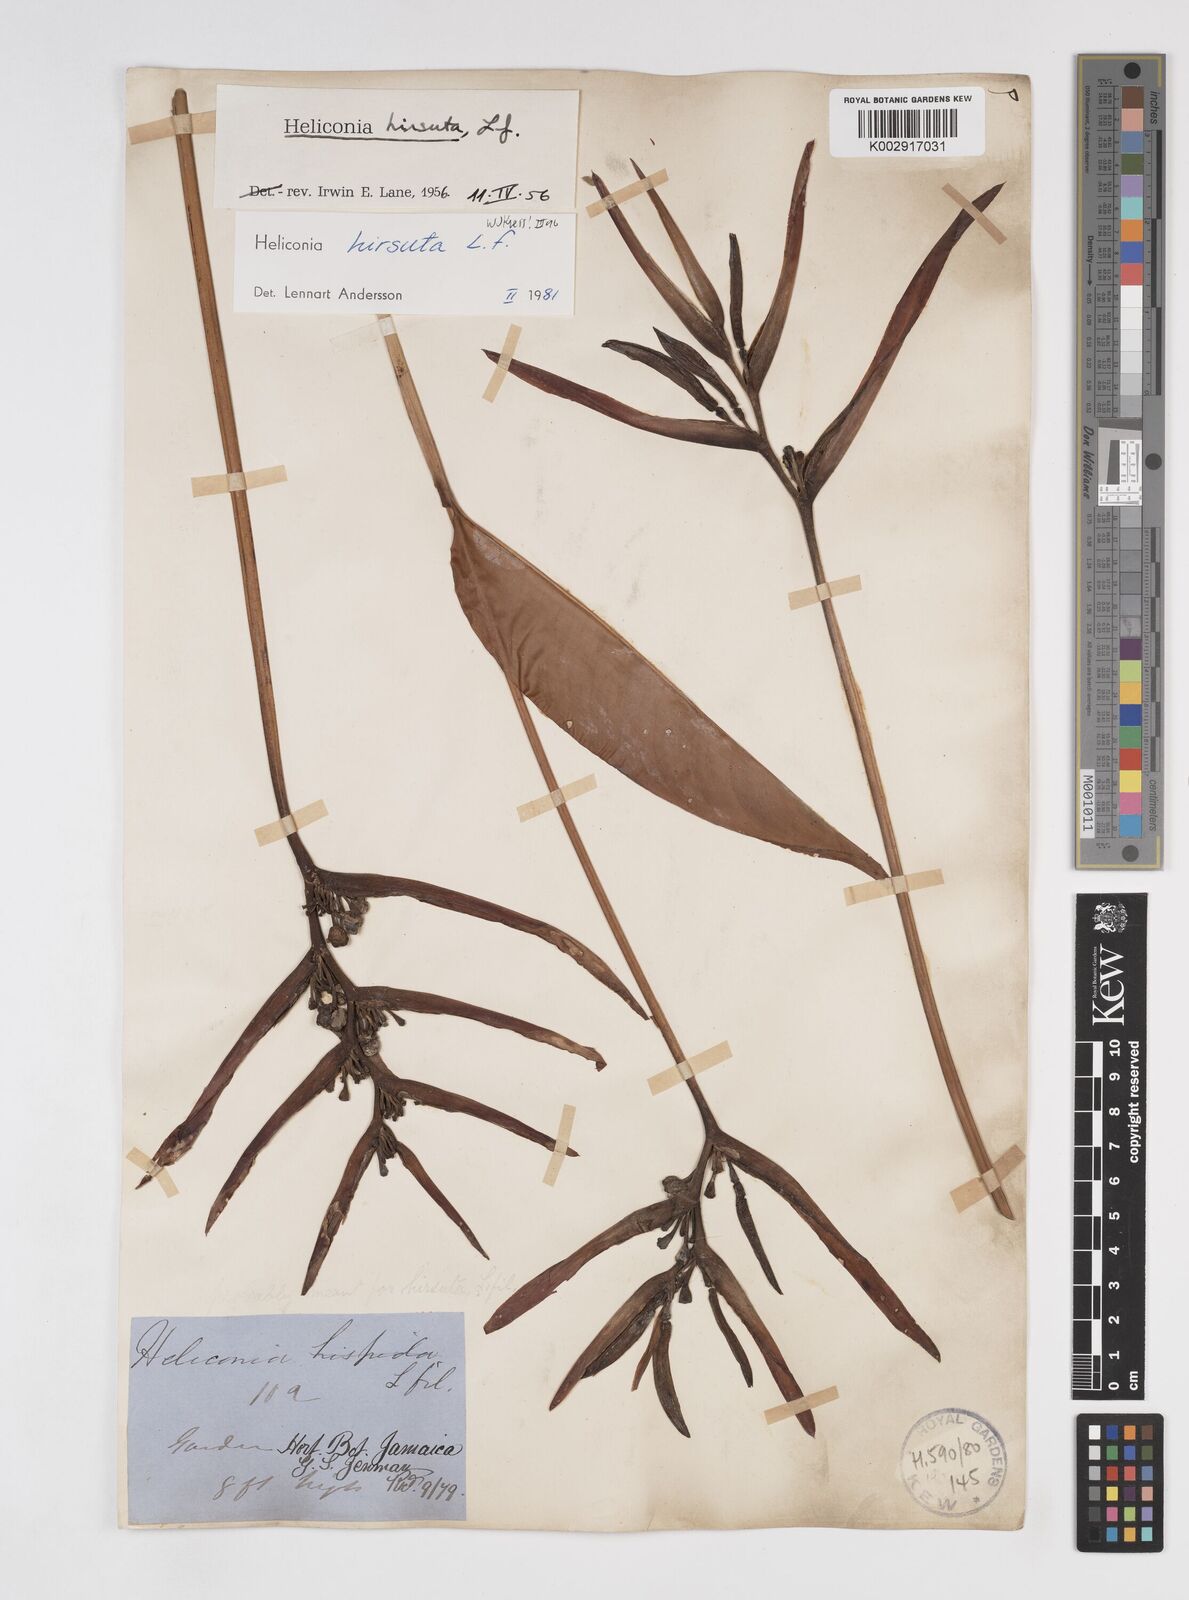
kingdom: Plantae
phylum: Tracheophyta
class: Liliopsida
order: Zingiberales
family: Heliconiaceae
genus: Heliconia
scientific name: Heliconia hirsuta
